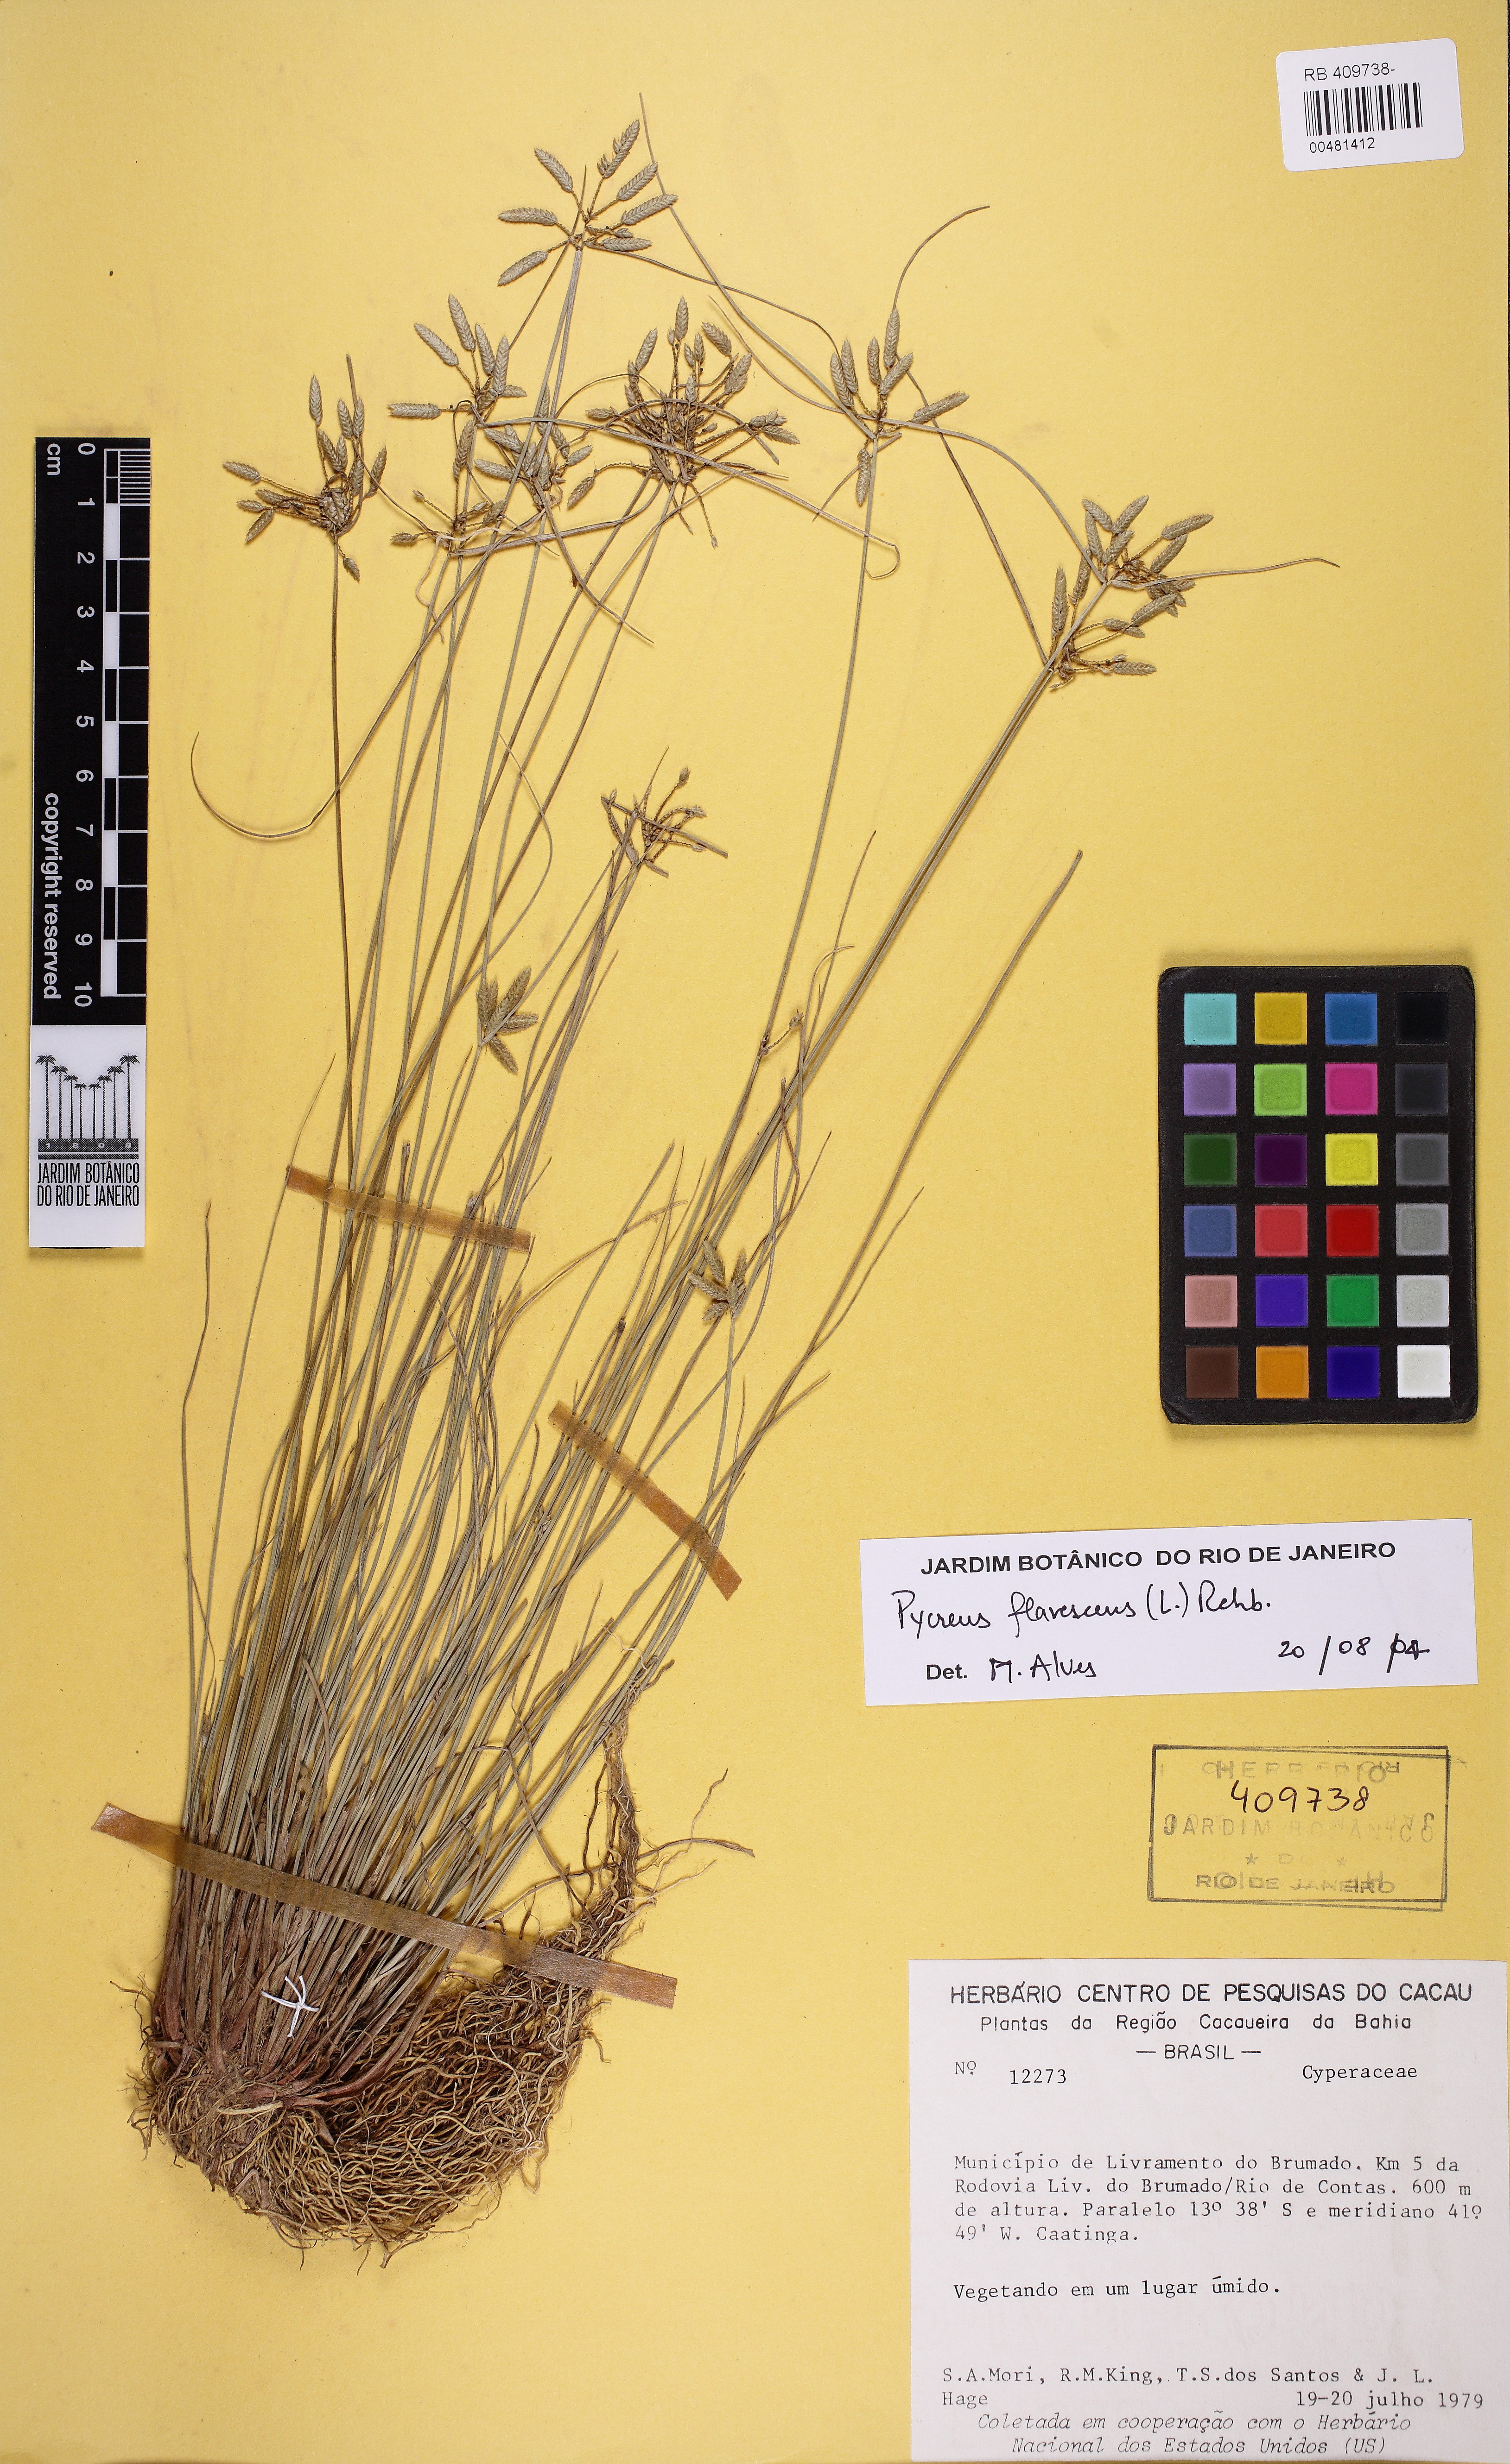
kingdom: Plantae
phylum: Tracheophyta
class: Liliopsida
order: Poales
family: Cyperaceae
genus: Cyperus
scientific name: Cyperus lanceolatus
